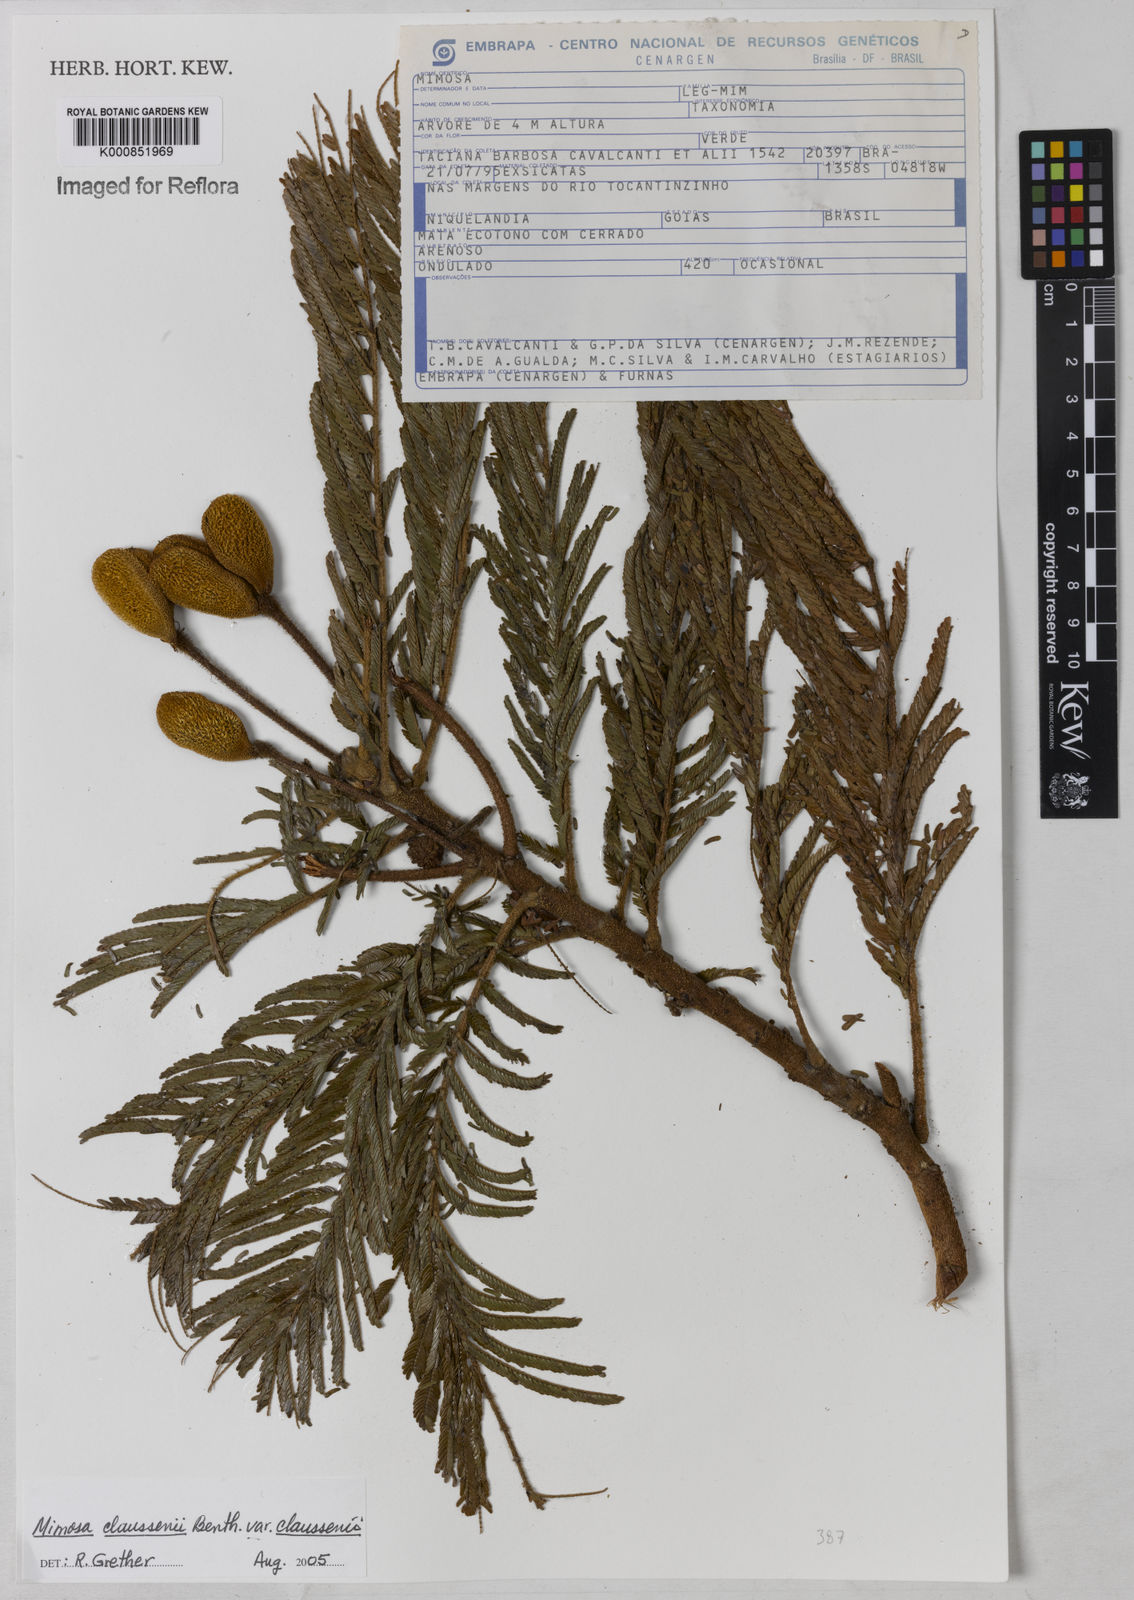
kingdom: Plantae
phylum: Tracheophyta
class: Magnoliopsida
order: Fabales
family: Fabaceae
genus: Mimosa
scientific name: Mimosa claussenii
